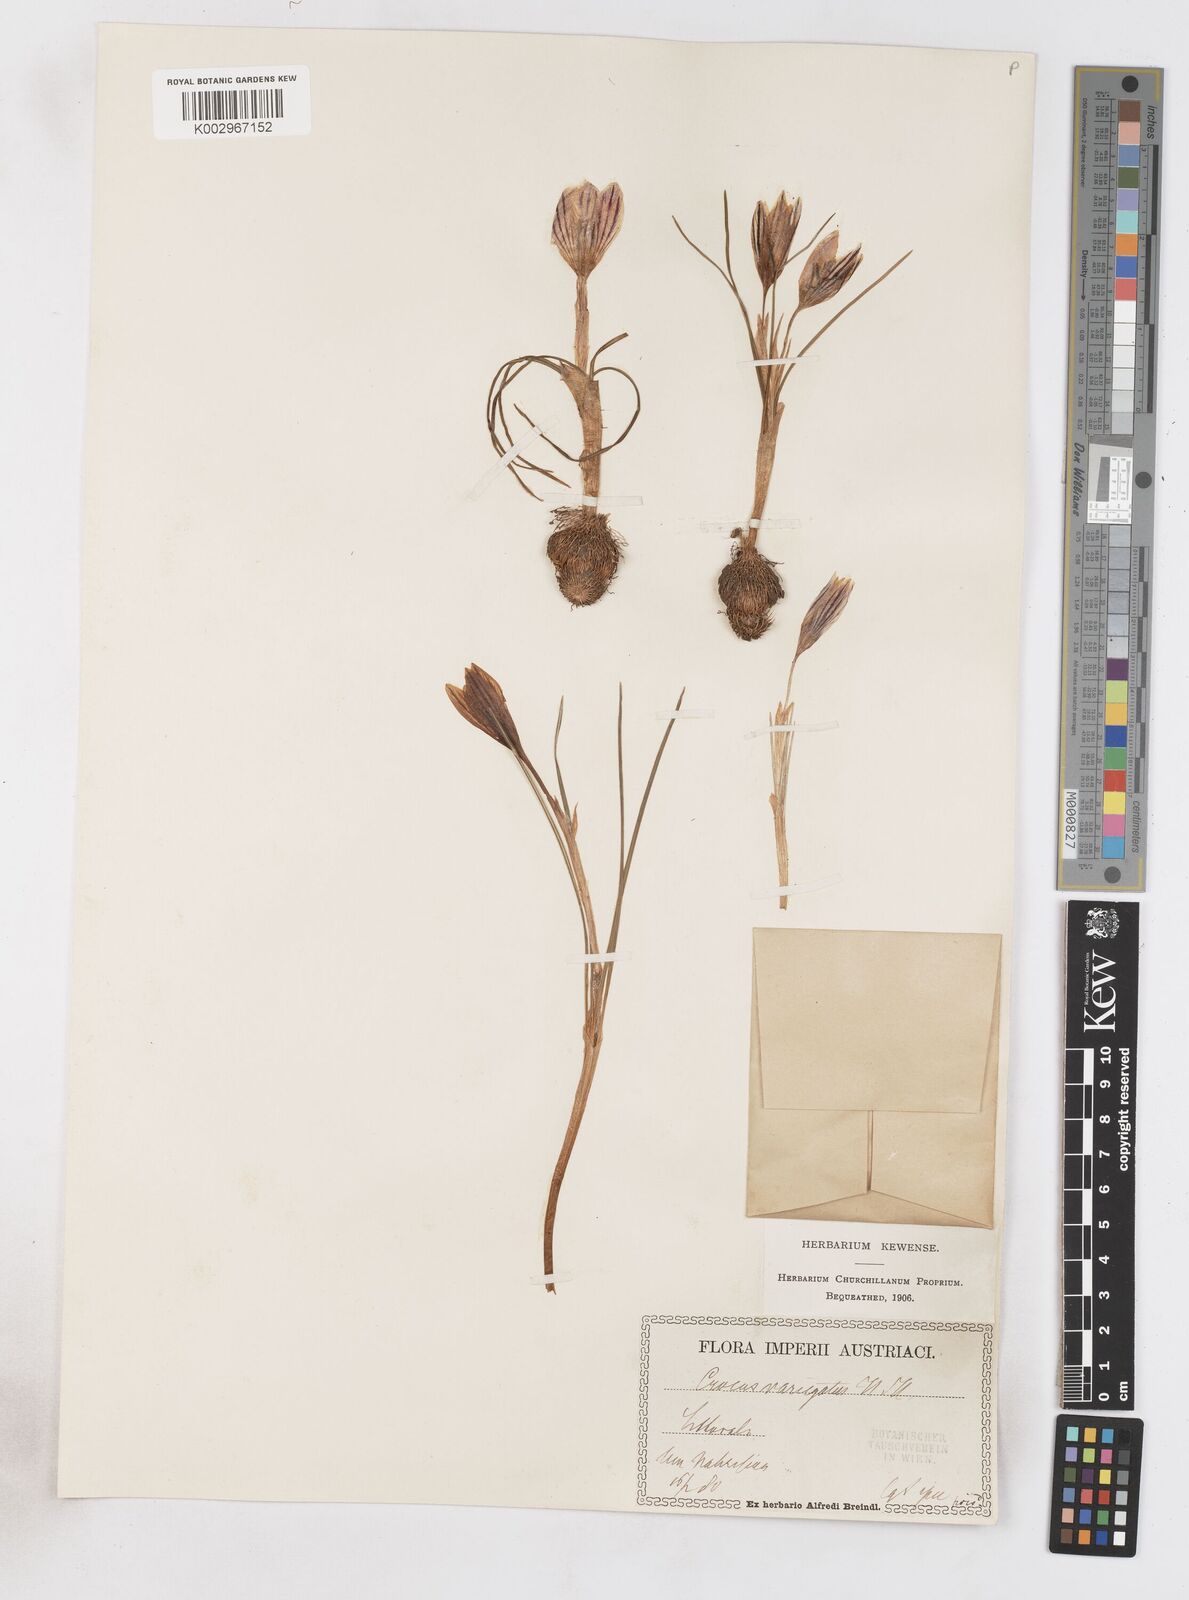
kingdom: Plantae
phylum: Tracheophyta
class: Liliopsida
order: Asparagales
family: Iridaceae
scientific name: Iridaceae
